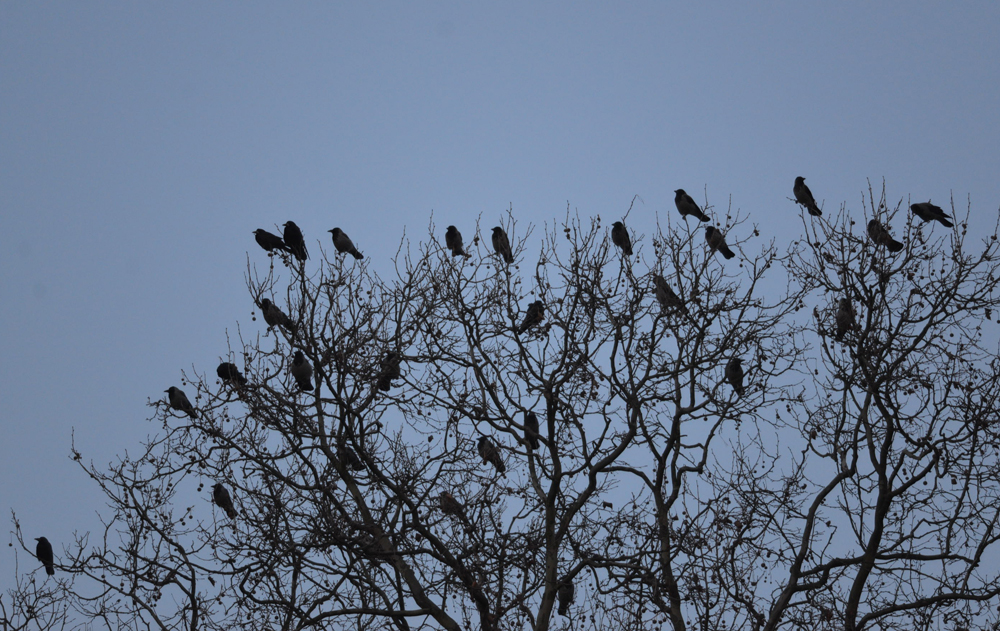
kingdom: Animalia
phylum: Chordata
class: Aves
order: Passeriformes
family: Corvidae
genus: Corvus
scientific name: Corvus cornix
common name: Hooded crow
